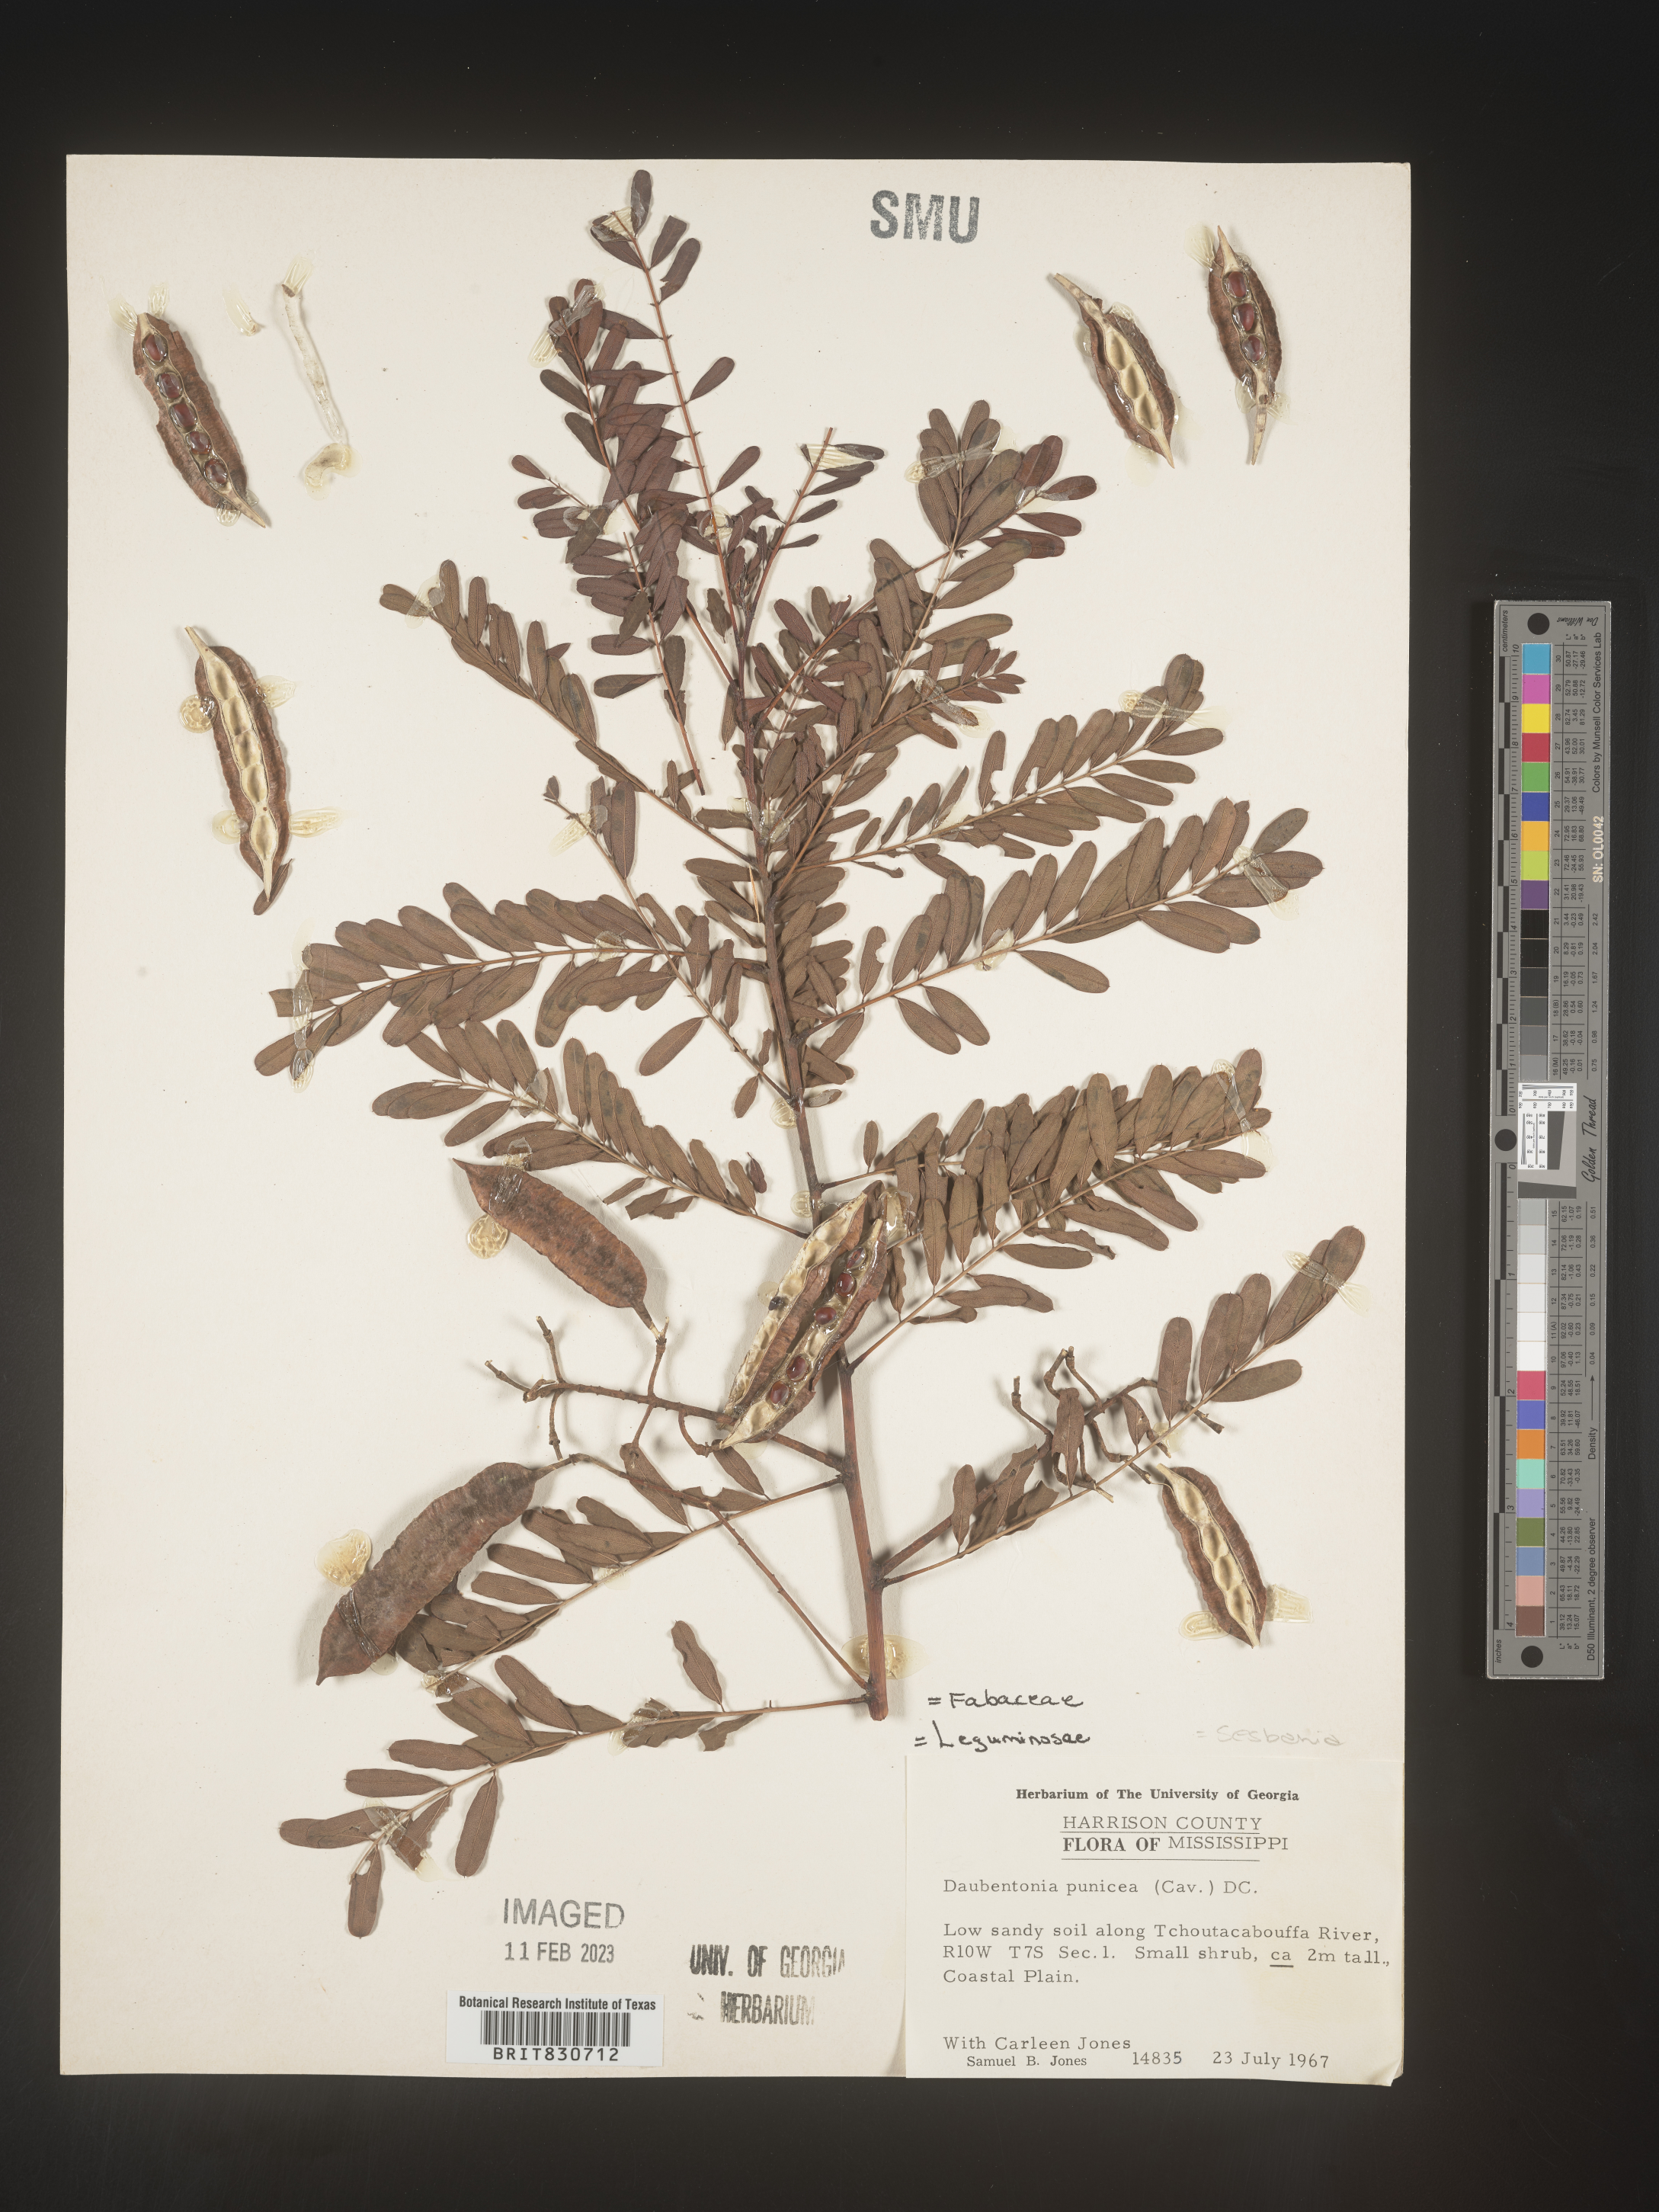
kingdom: Plantae
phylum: Tracheophyta
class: Magnoliopsida
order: Fabales
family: Fabaceae
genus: Sesbania
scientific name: Sesbania punicea
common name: Rattlebox
